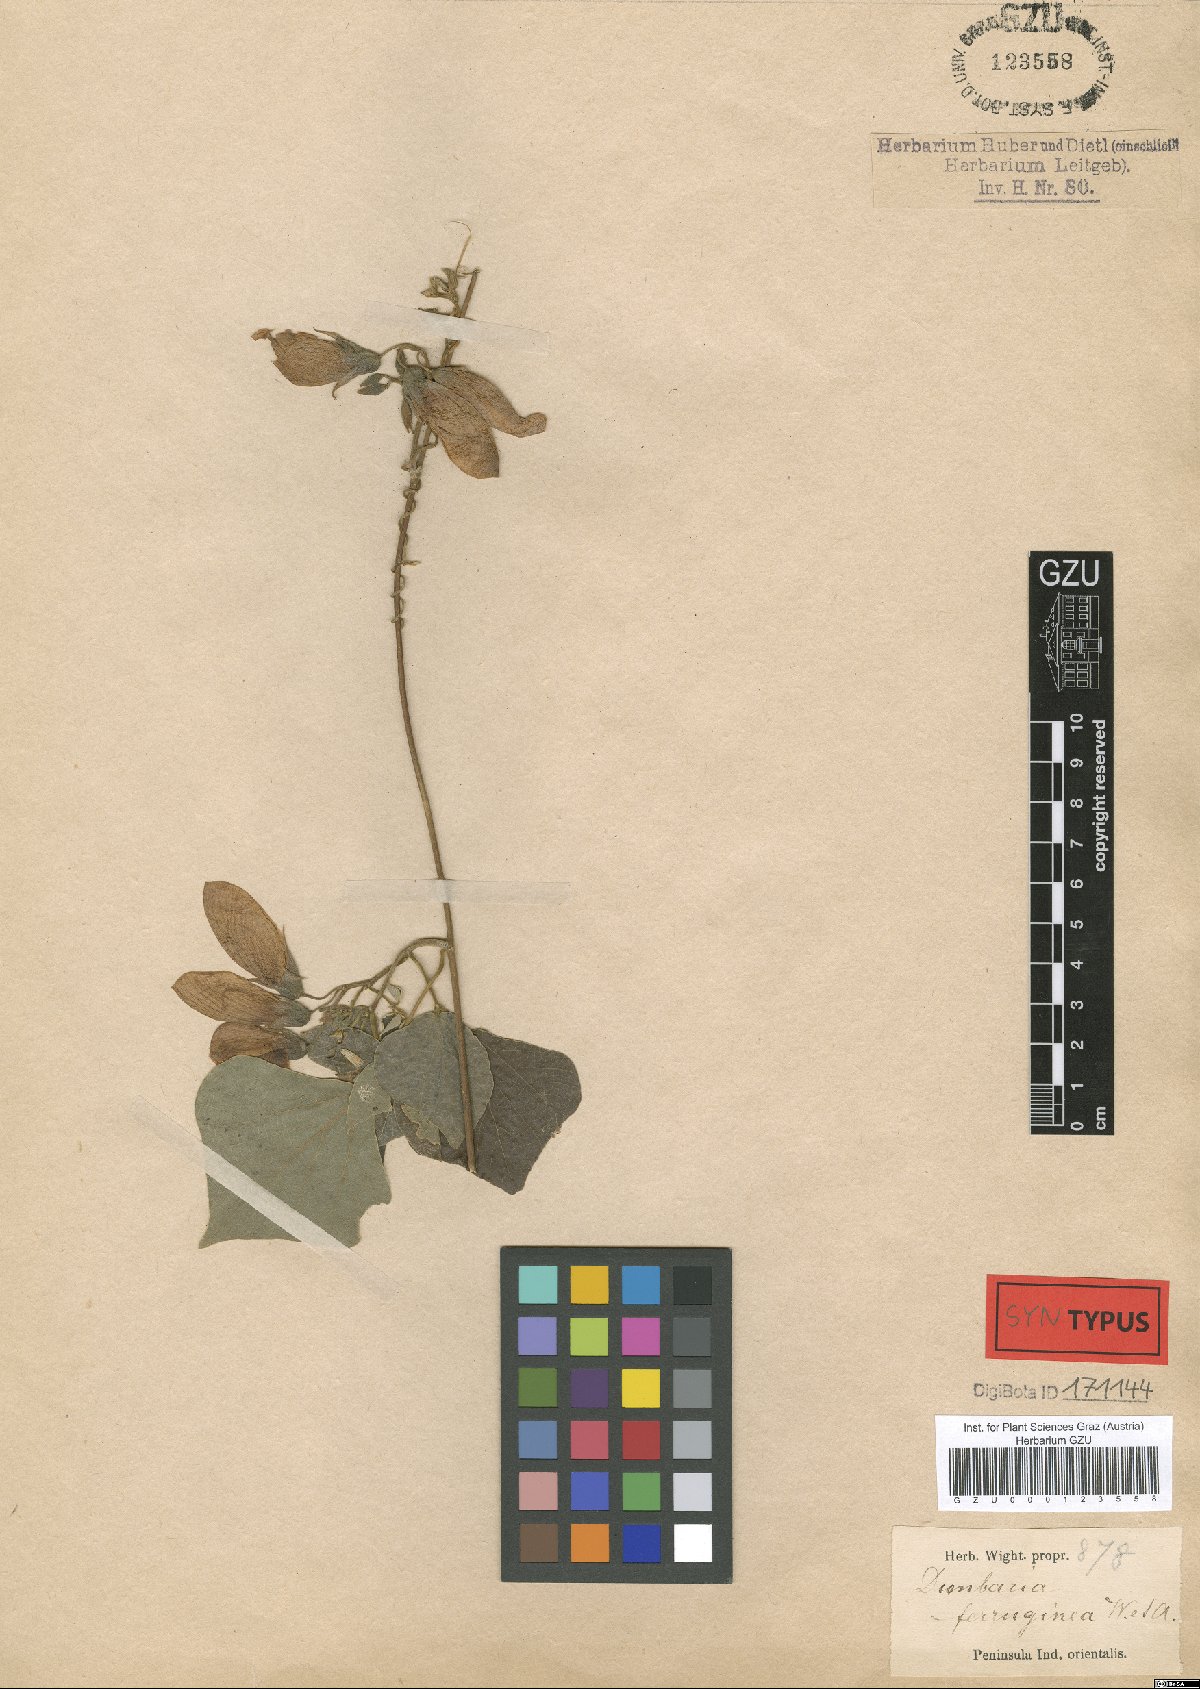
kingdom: Plantae
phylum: Tracheophyta
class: Magnoliopsida
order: Fabales
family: Fabaceae
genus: Dunbaria
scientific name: Dunbaria ferruginea
